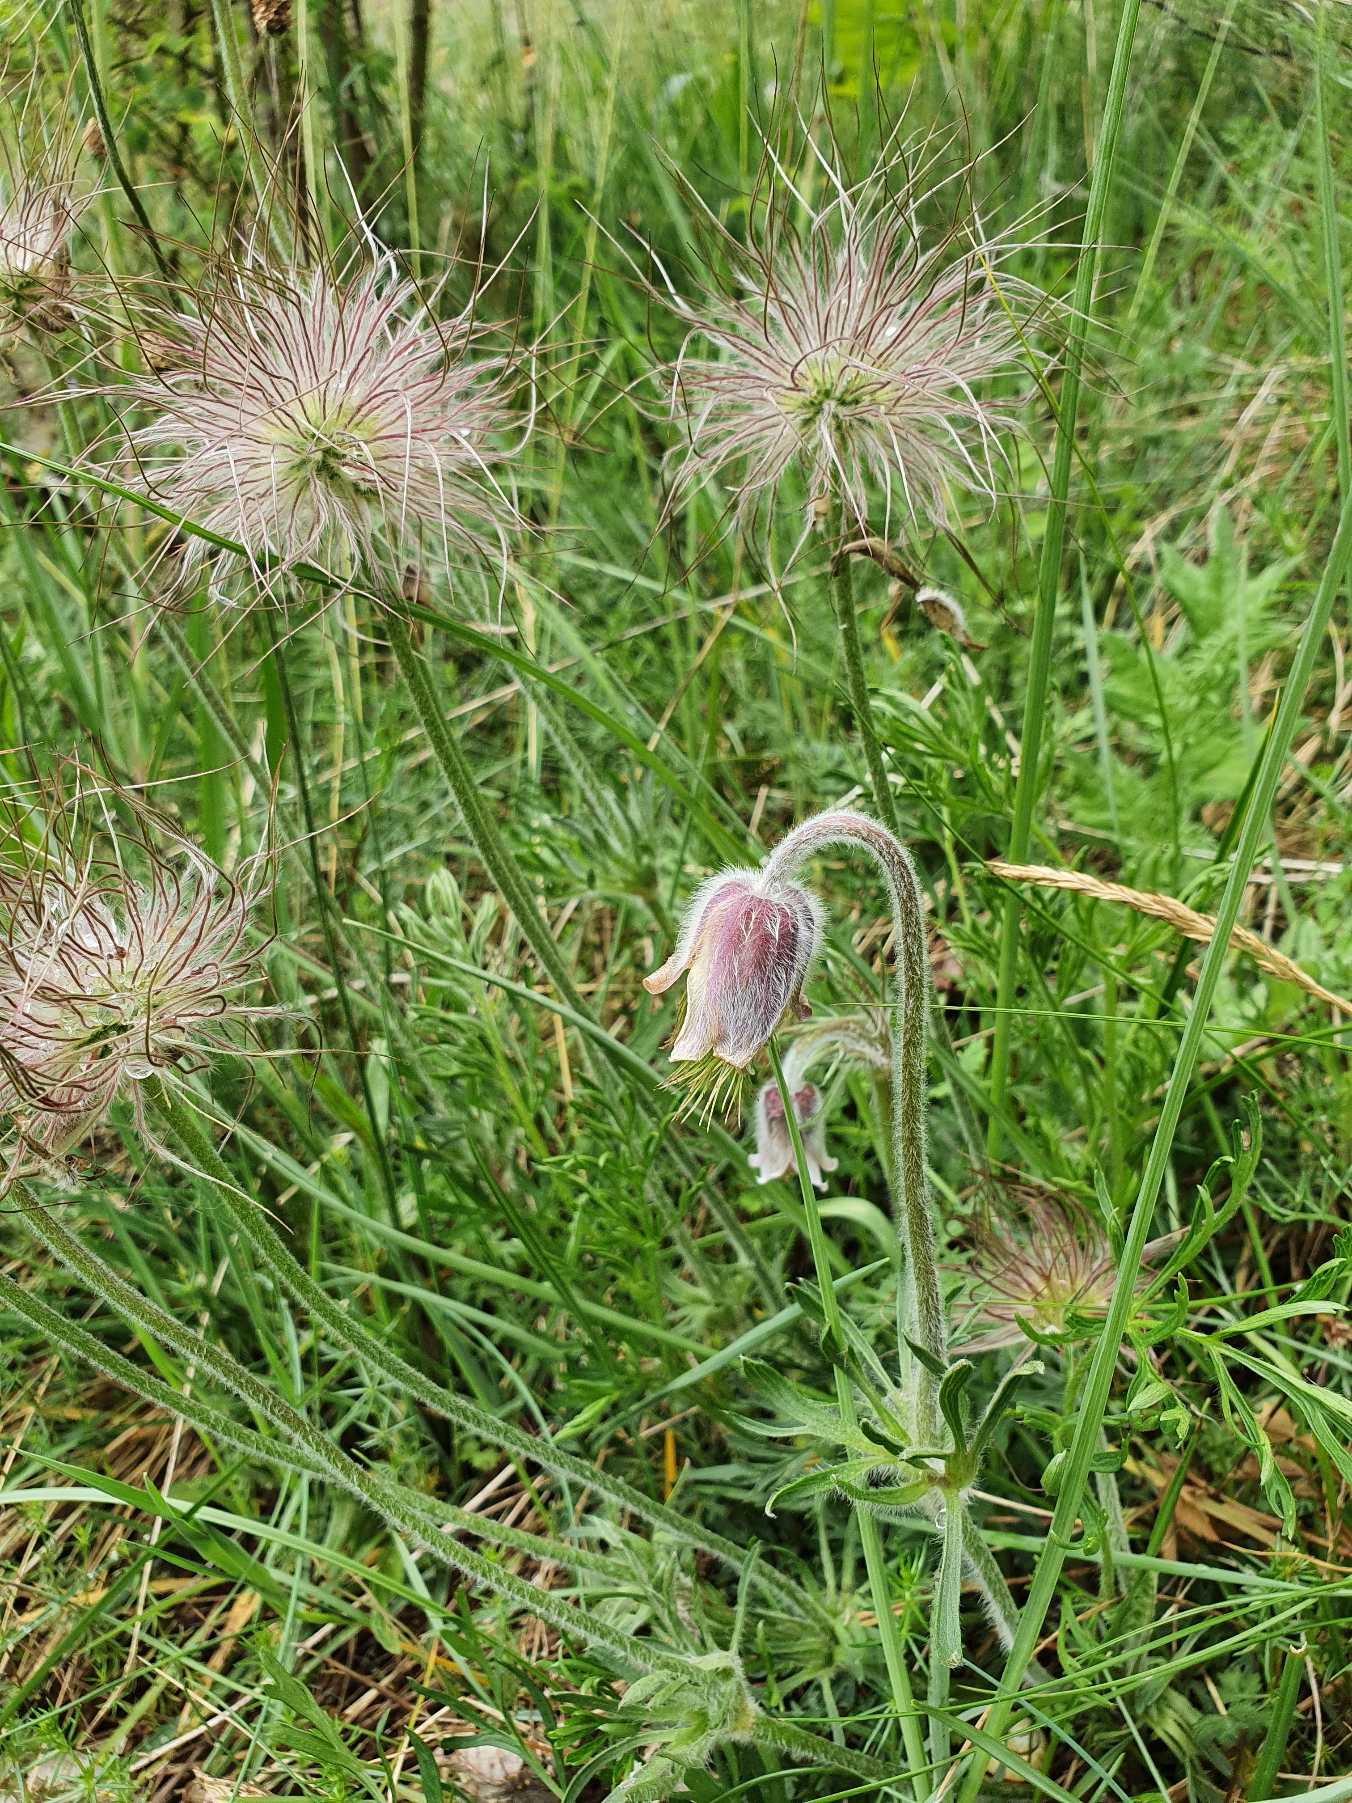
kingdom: Plantae
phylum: Tracheophyta
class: Magnoliopsida
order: Ranunculales
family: Ranunculaceae
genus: Pulsatilla
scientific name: Pulsatilla pratensis
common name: Nikkende kobjælde
